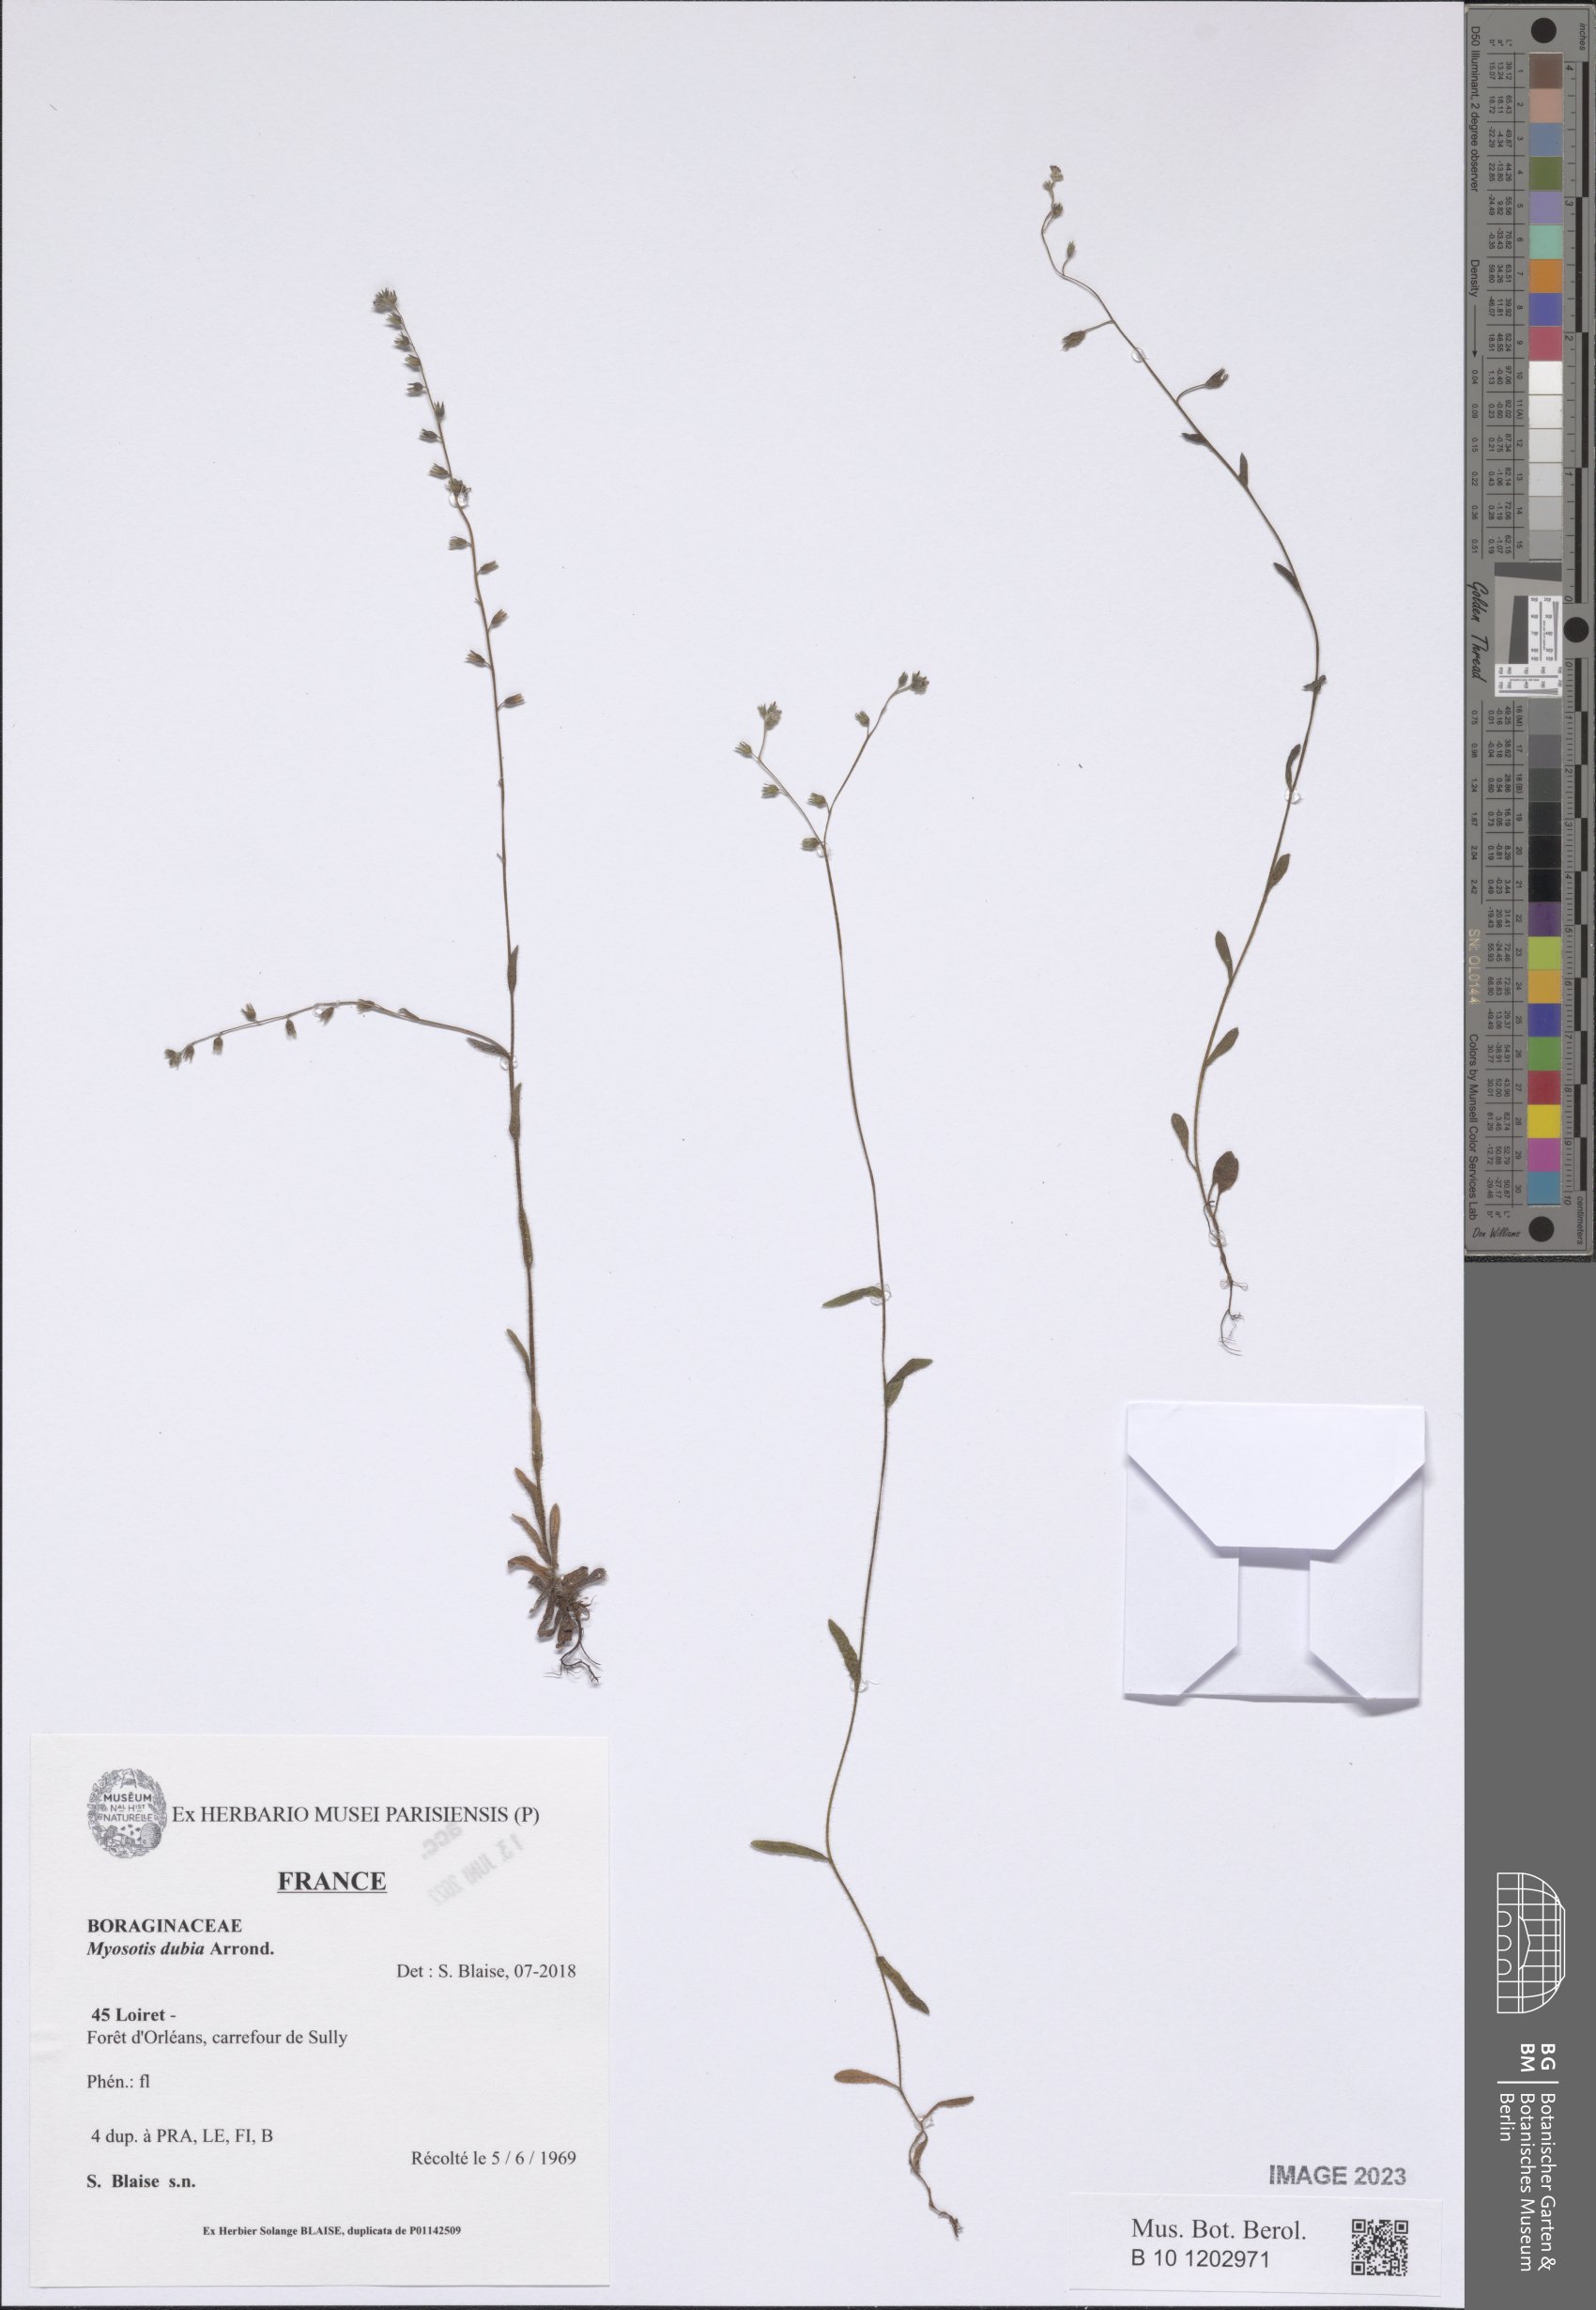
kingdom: Plantae
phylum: Tracheophyta
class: Magnoliopsida
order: Boraginales
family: Boraginaceae
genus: Myosotis
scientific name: Myosotis dubia
